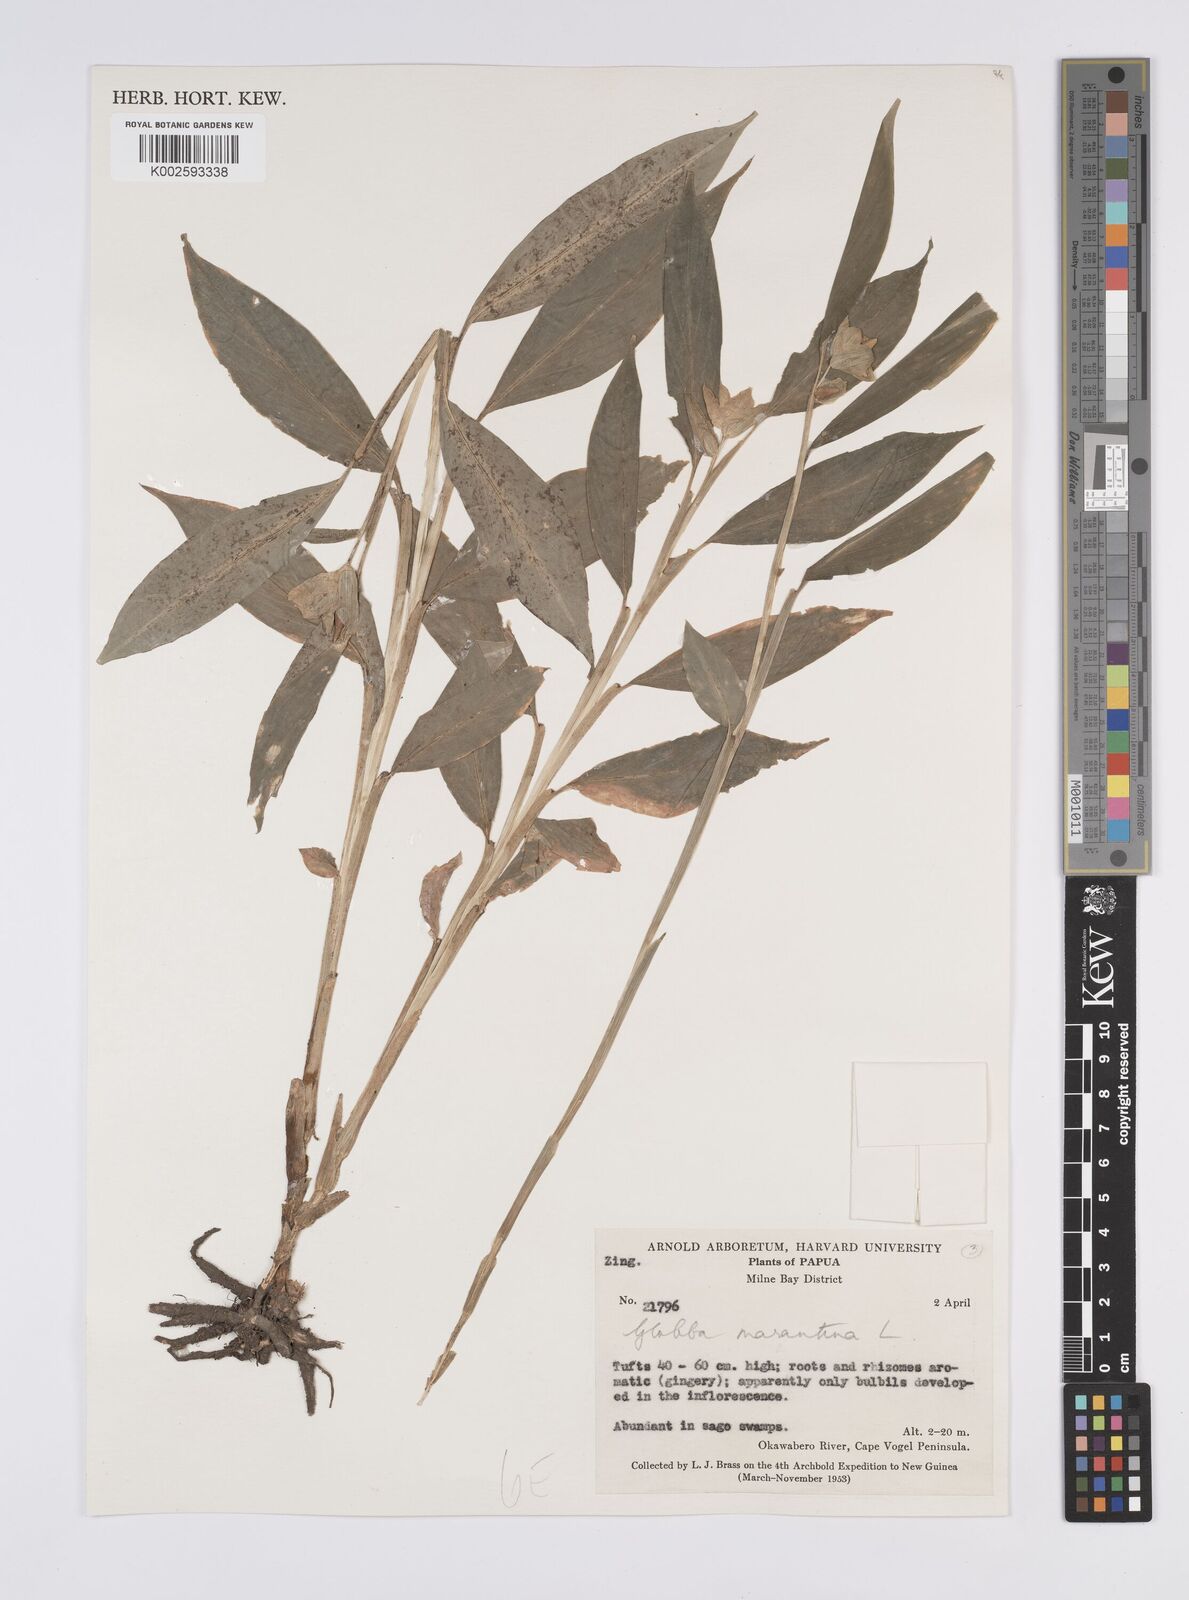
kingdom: Plantae
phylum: Tracheophyta
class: Liliopsida
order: Zingiberales
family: Zingiberaceae
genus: Globba
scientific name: Globba marantina
